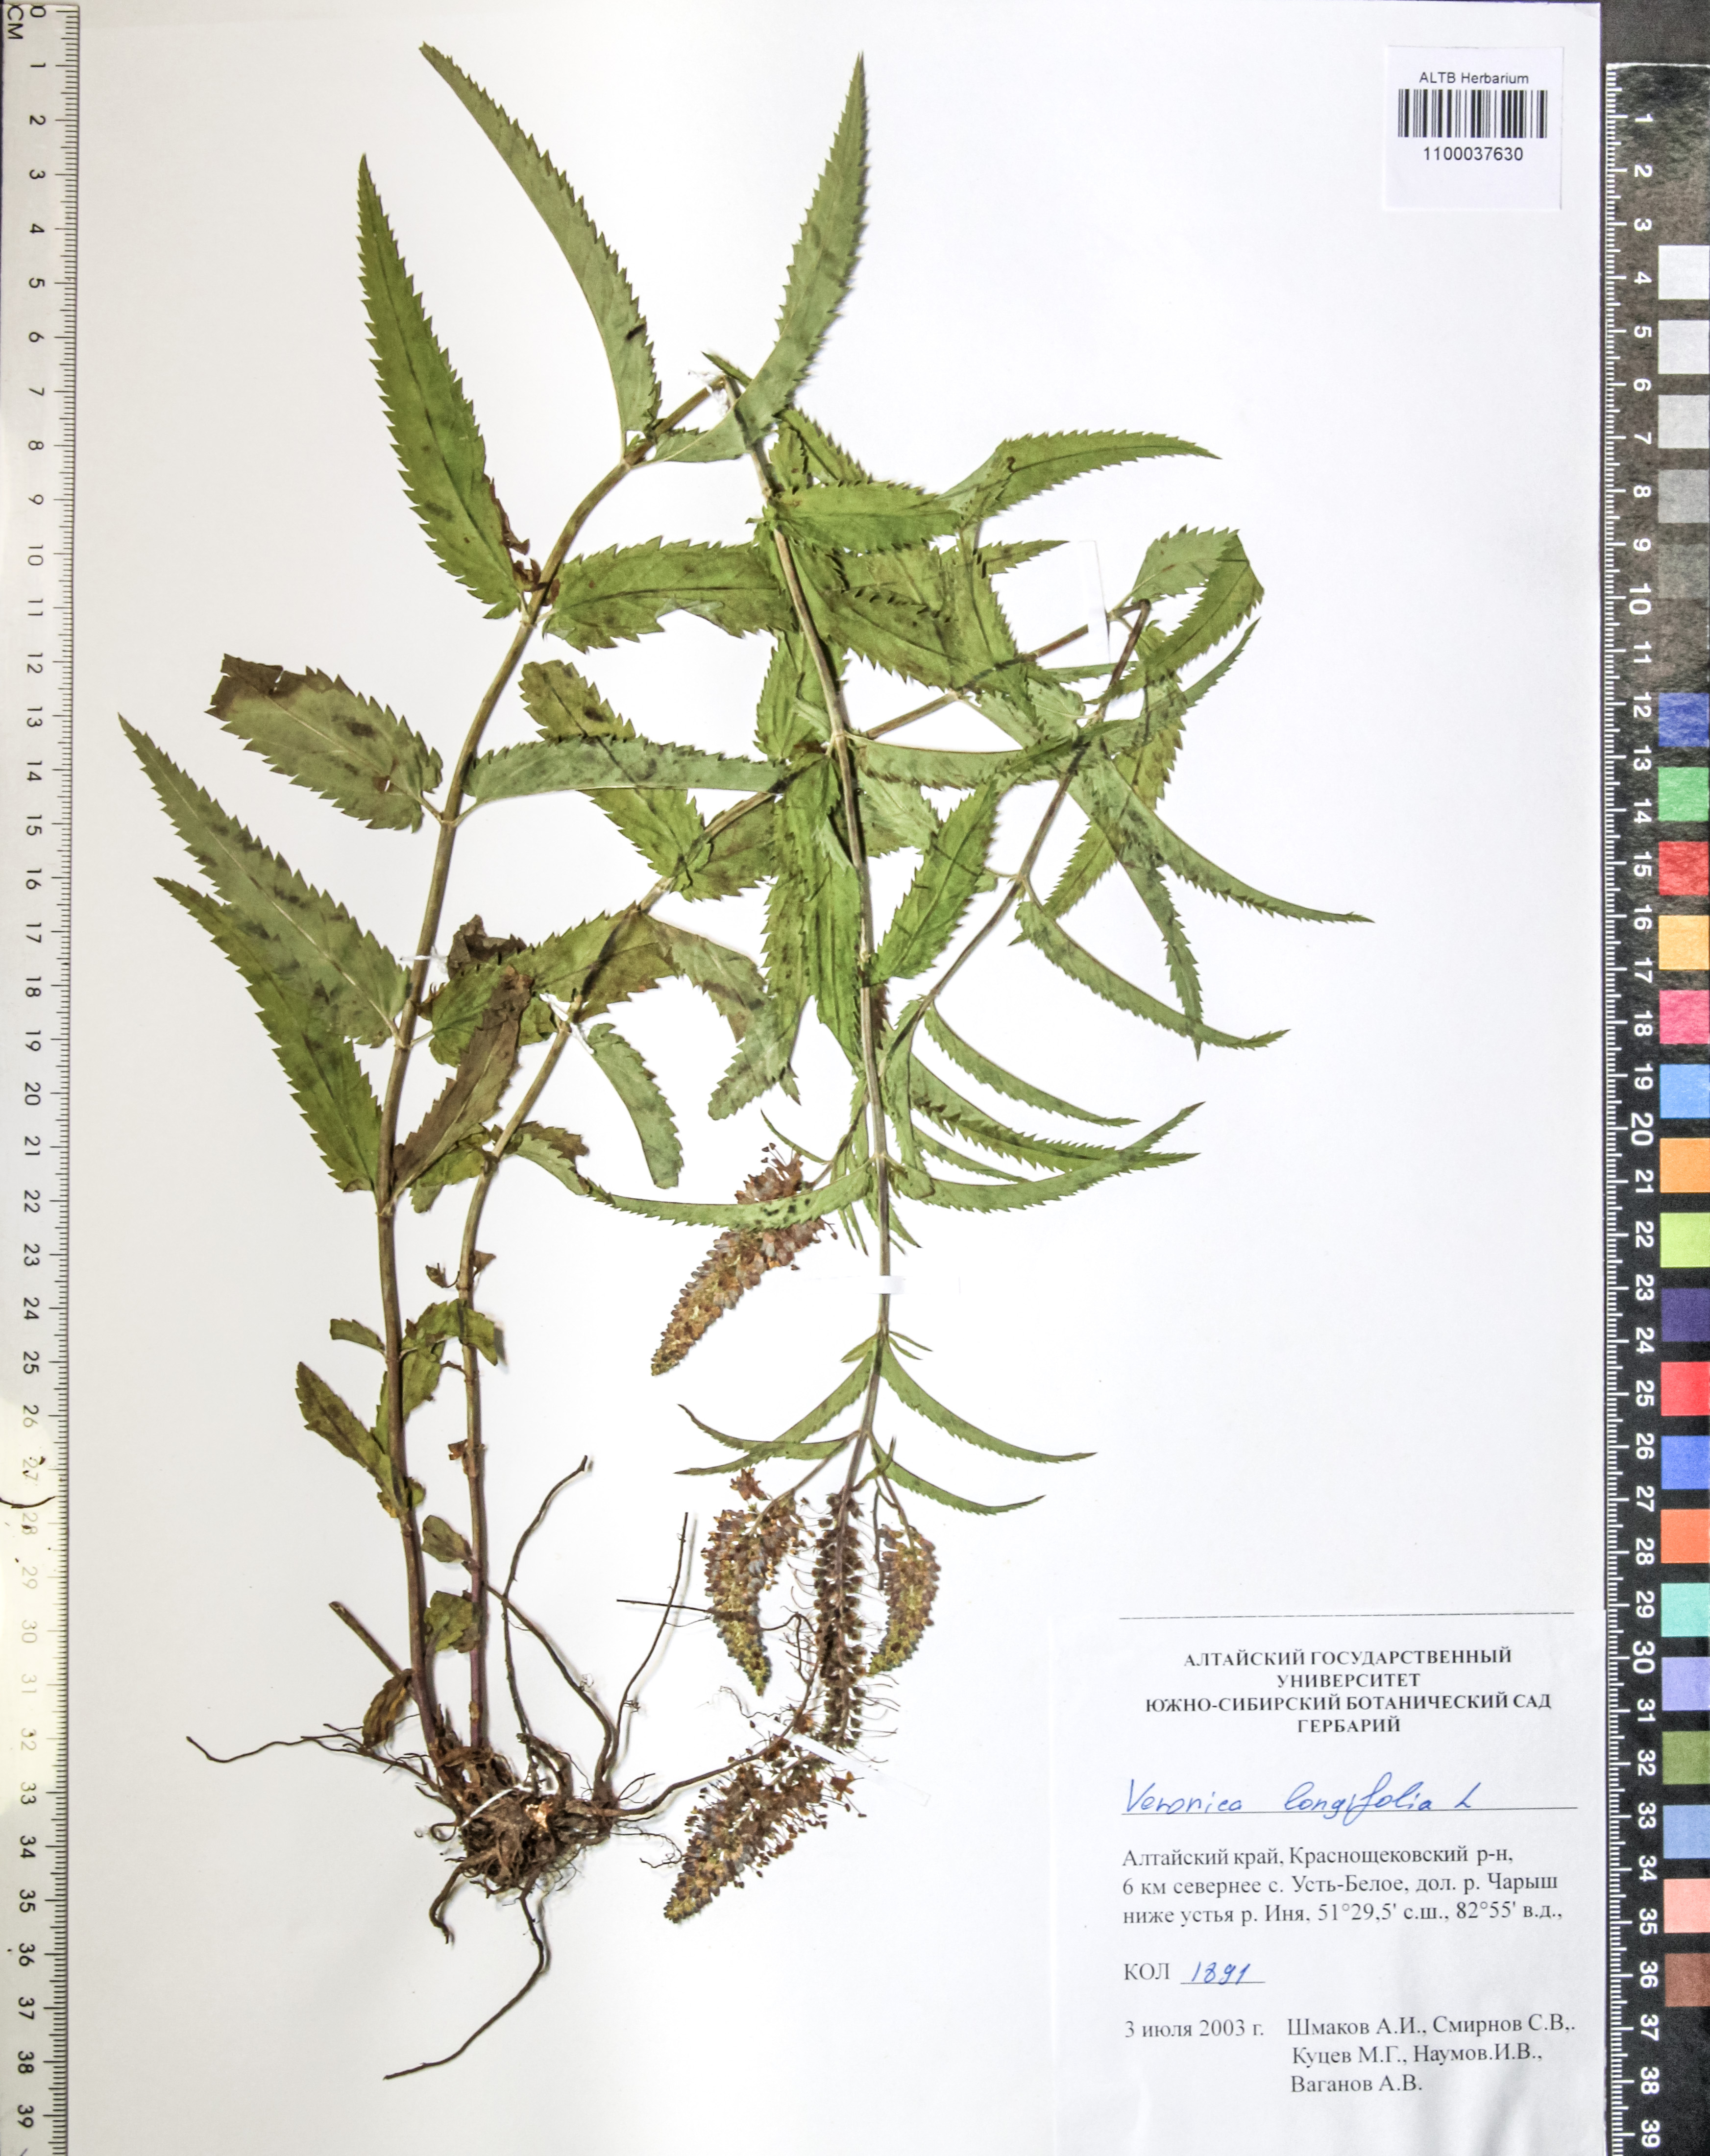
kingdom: Plantae
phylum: Tracheophyta
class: Magnoliopsida
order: Lamiales
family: Plantaginaceae
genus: Veronica
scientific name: Veronica longifolia
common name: Garden speedwell
